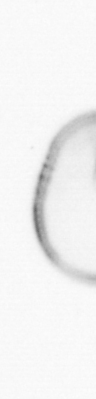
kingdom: Chromista
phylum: Myzozoa
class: Dinophyceae
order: Noctilucales
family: Noctilucaceae
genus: Noctiluca
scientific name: Noctiluca scintillans
